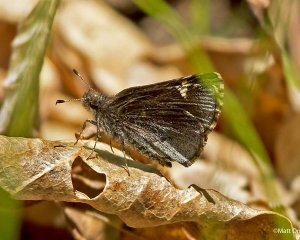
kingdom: Animalia
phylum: Arthropoda
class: Insecta
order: Lepidoptera
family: Hesperiidae
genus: Mastor
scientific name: Mastor vialis
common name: Common Roadside-Skipper
